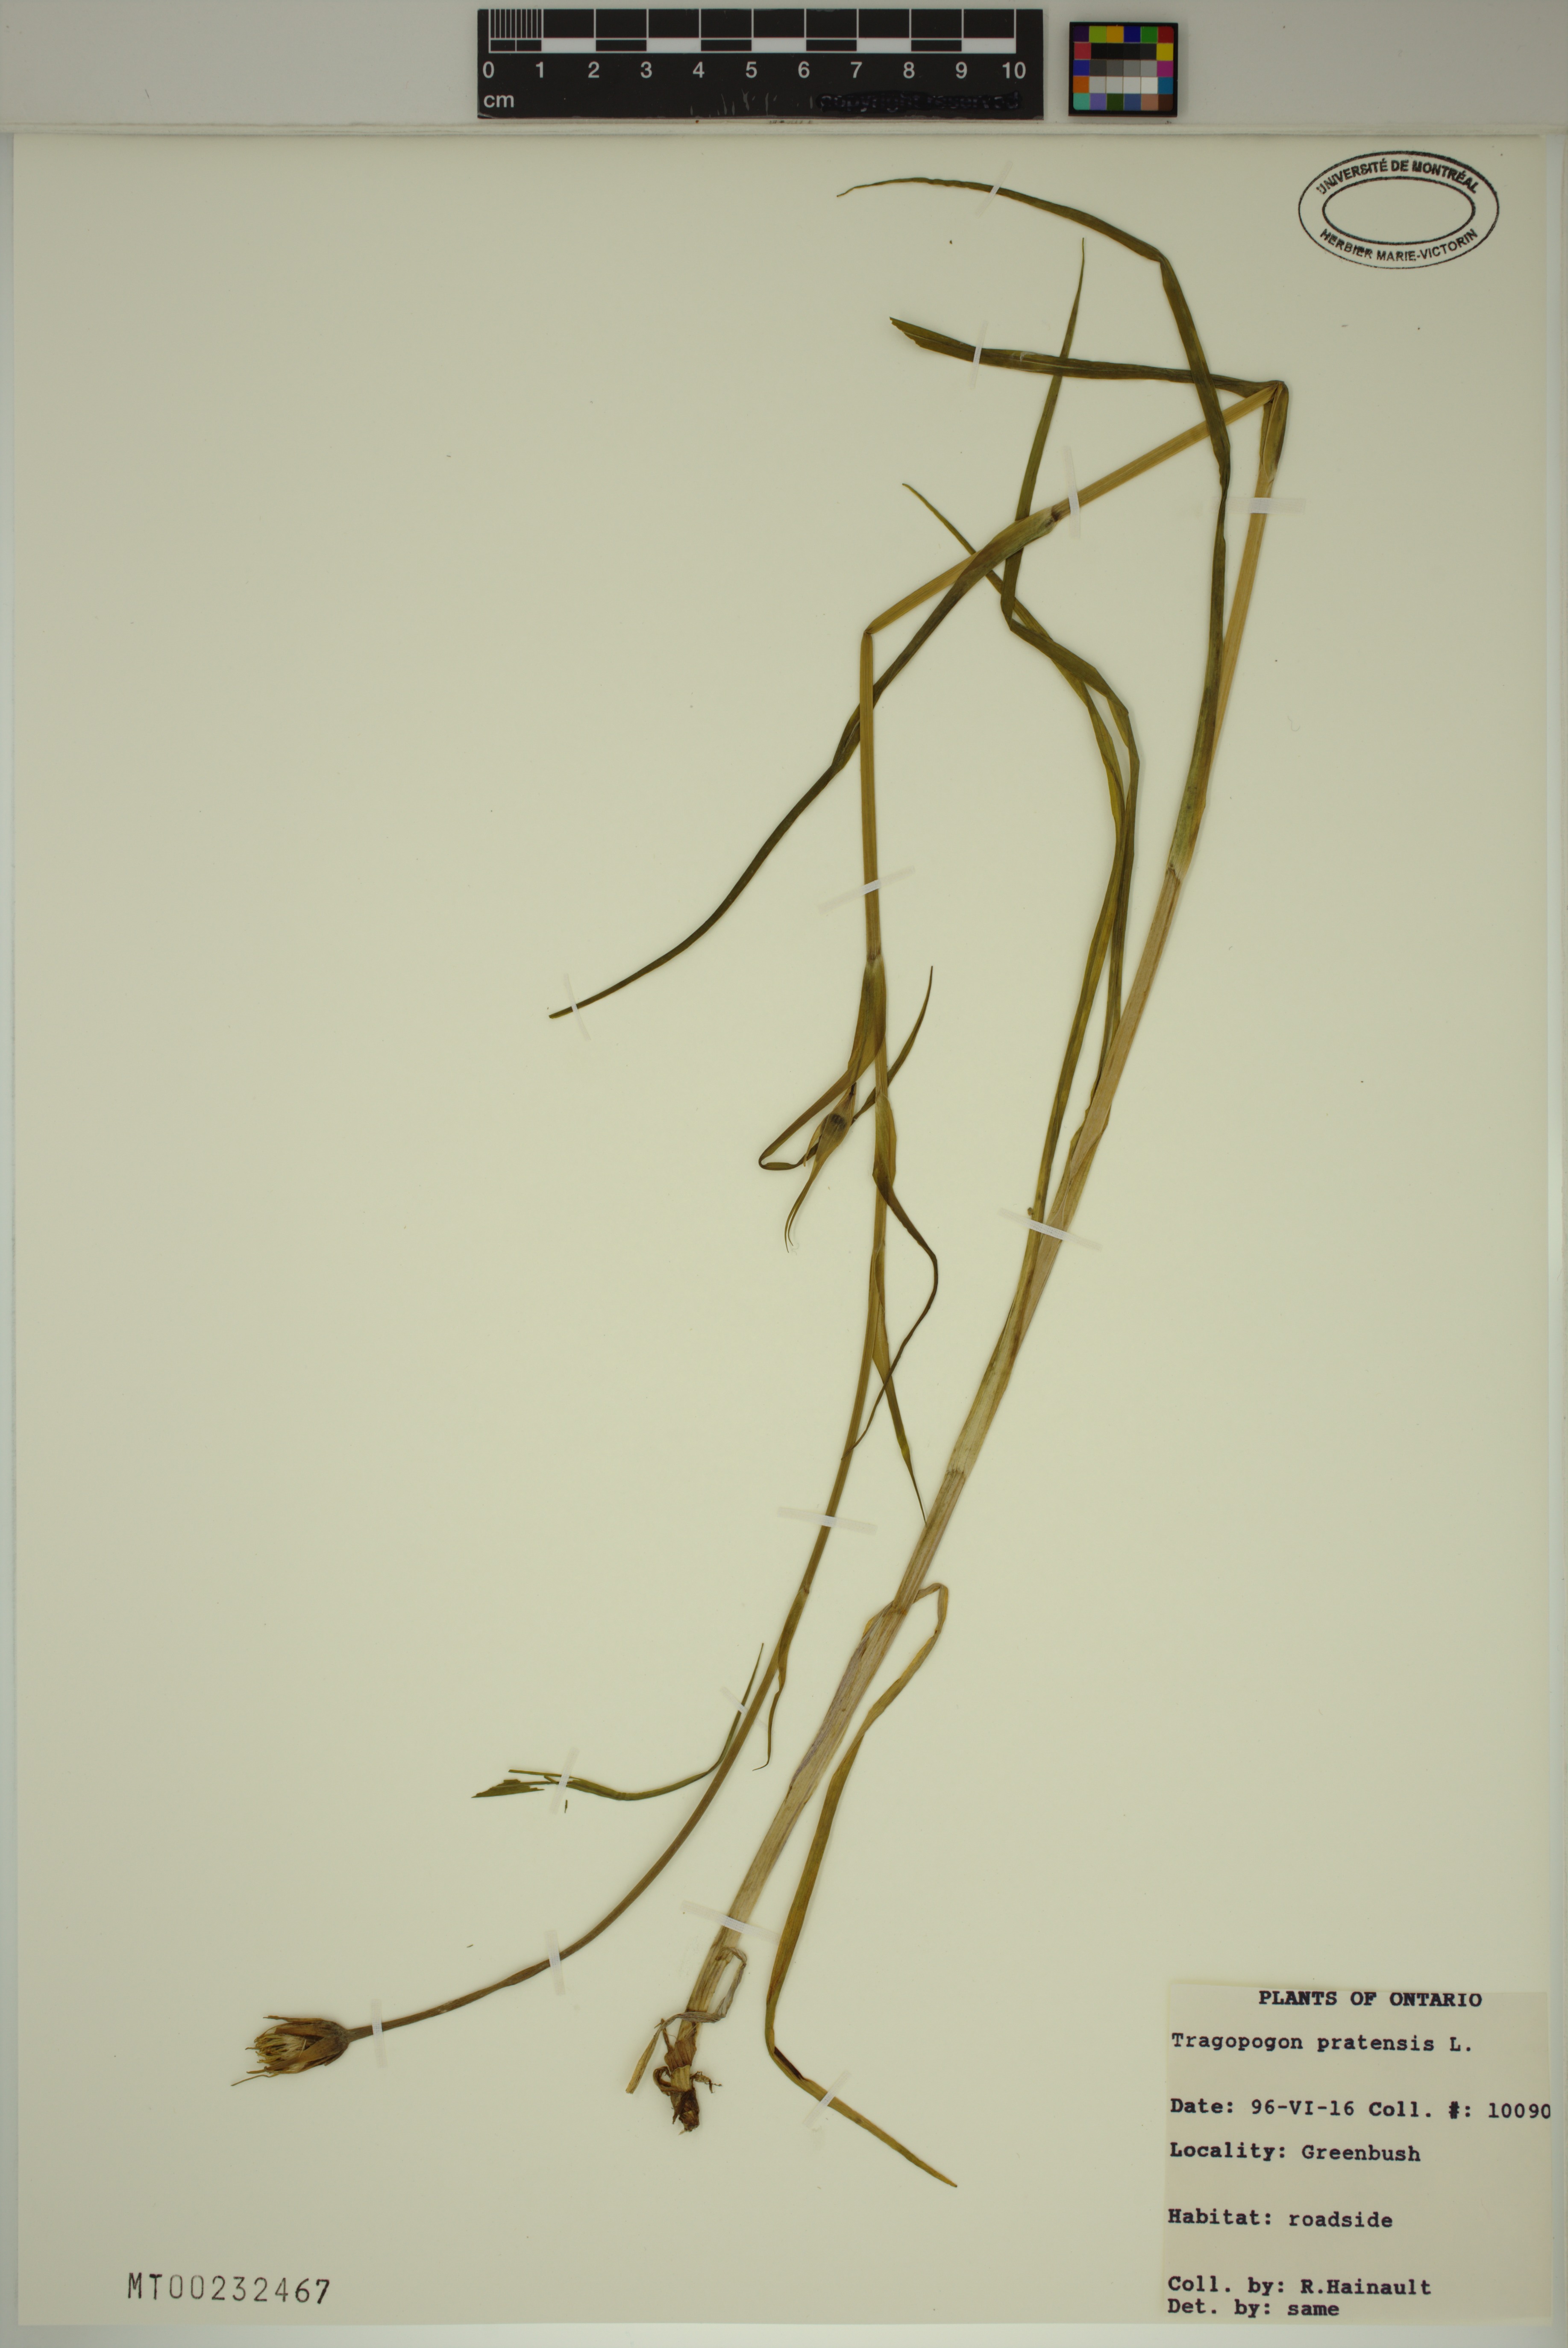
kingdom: Plantae
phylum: Tracheophyta
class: Magnoliopsida
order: Asterales
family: Asteraceae
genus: Tragopogon
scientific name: Tragopogon pratensis
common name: Goat's-beard
